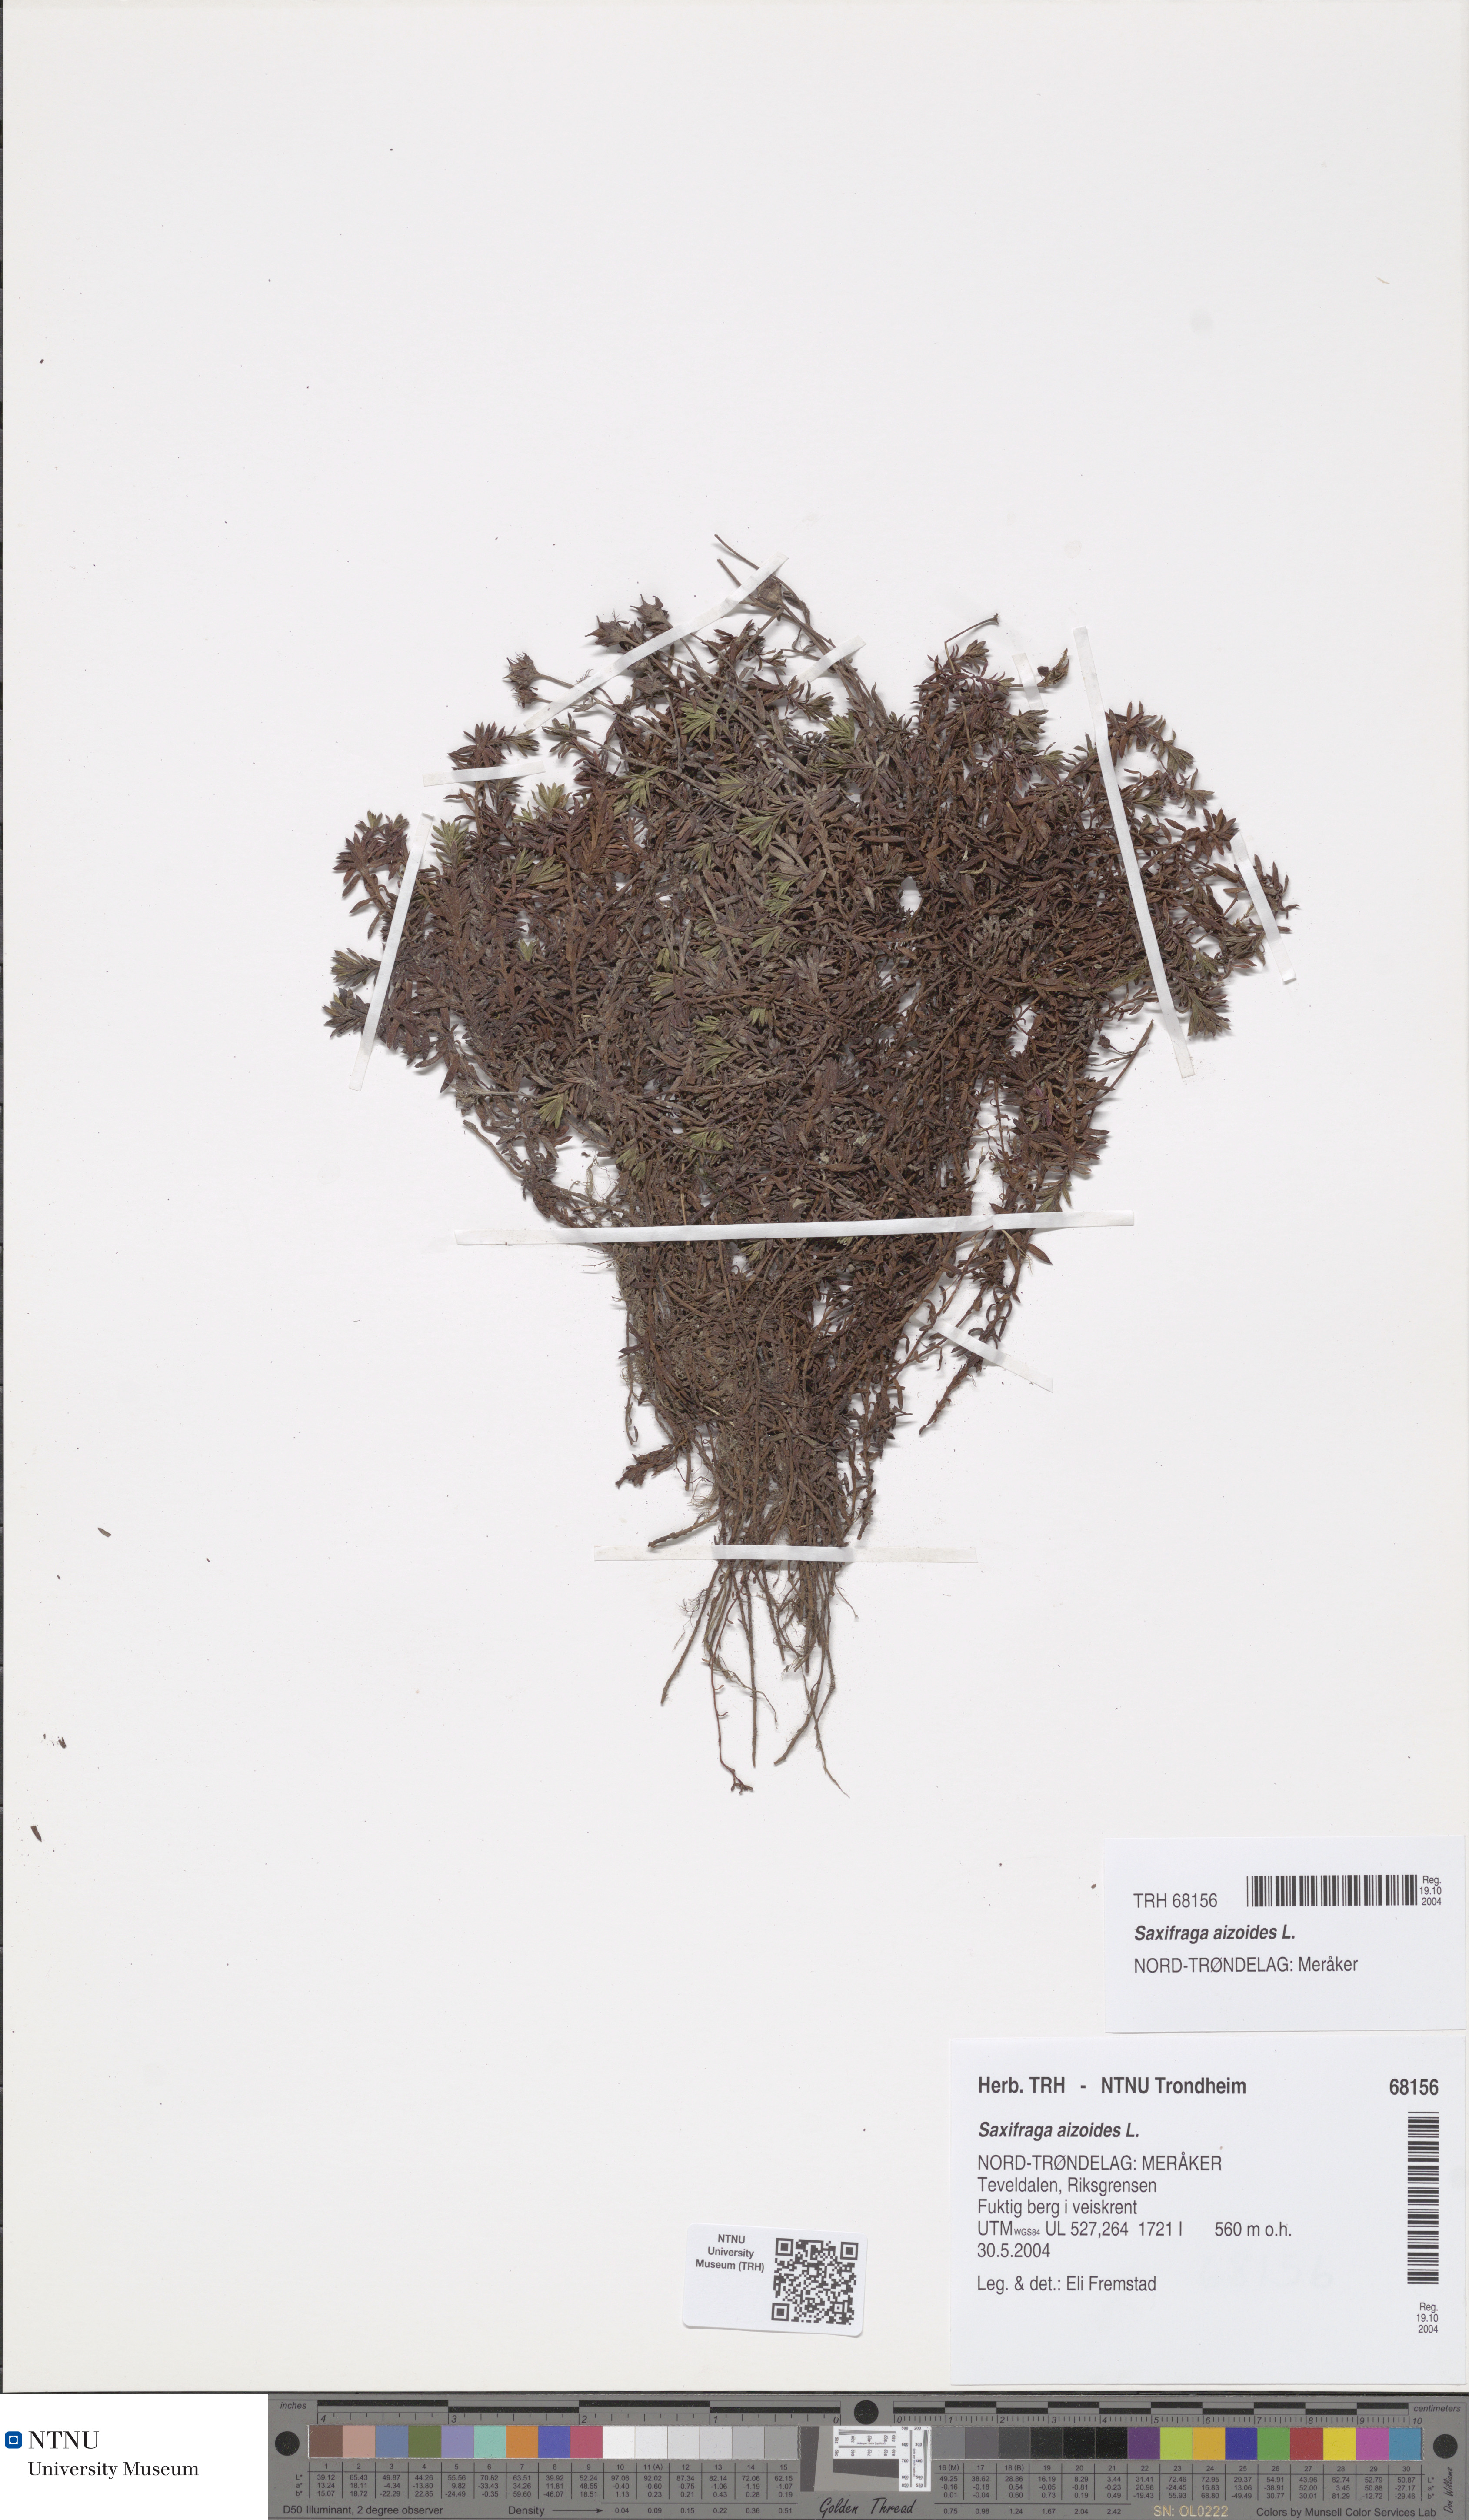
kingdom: Plantae
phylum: Tracheophyta
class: Magnoliopsida
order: Saxifragales
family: Saxifragaceae
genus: Saxifraga
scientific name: Saxifraga aizoides
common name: Yellow mountain saxifrage
